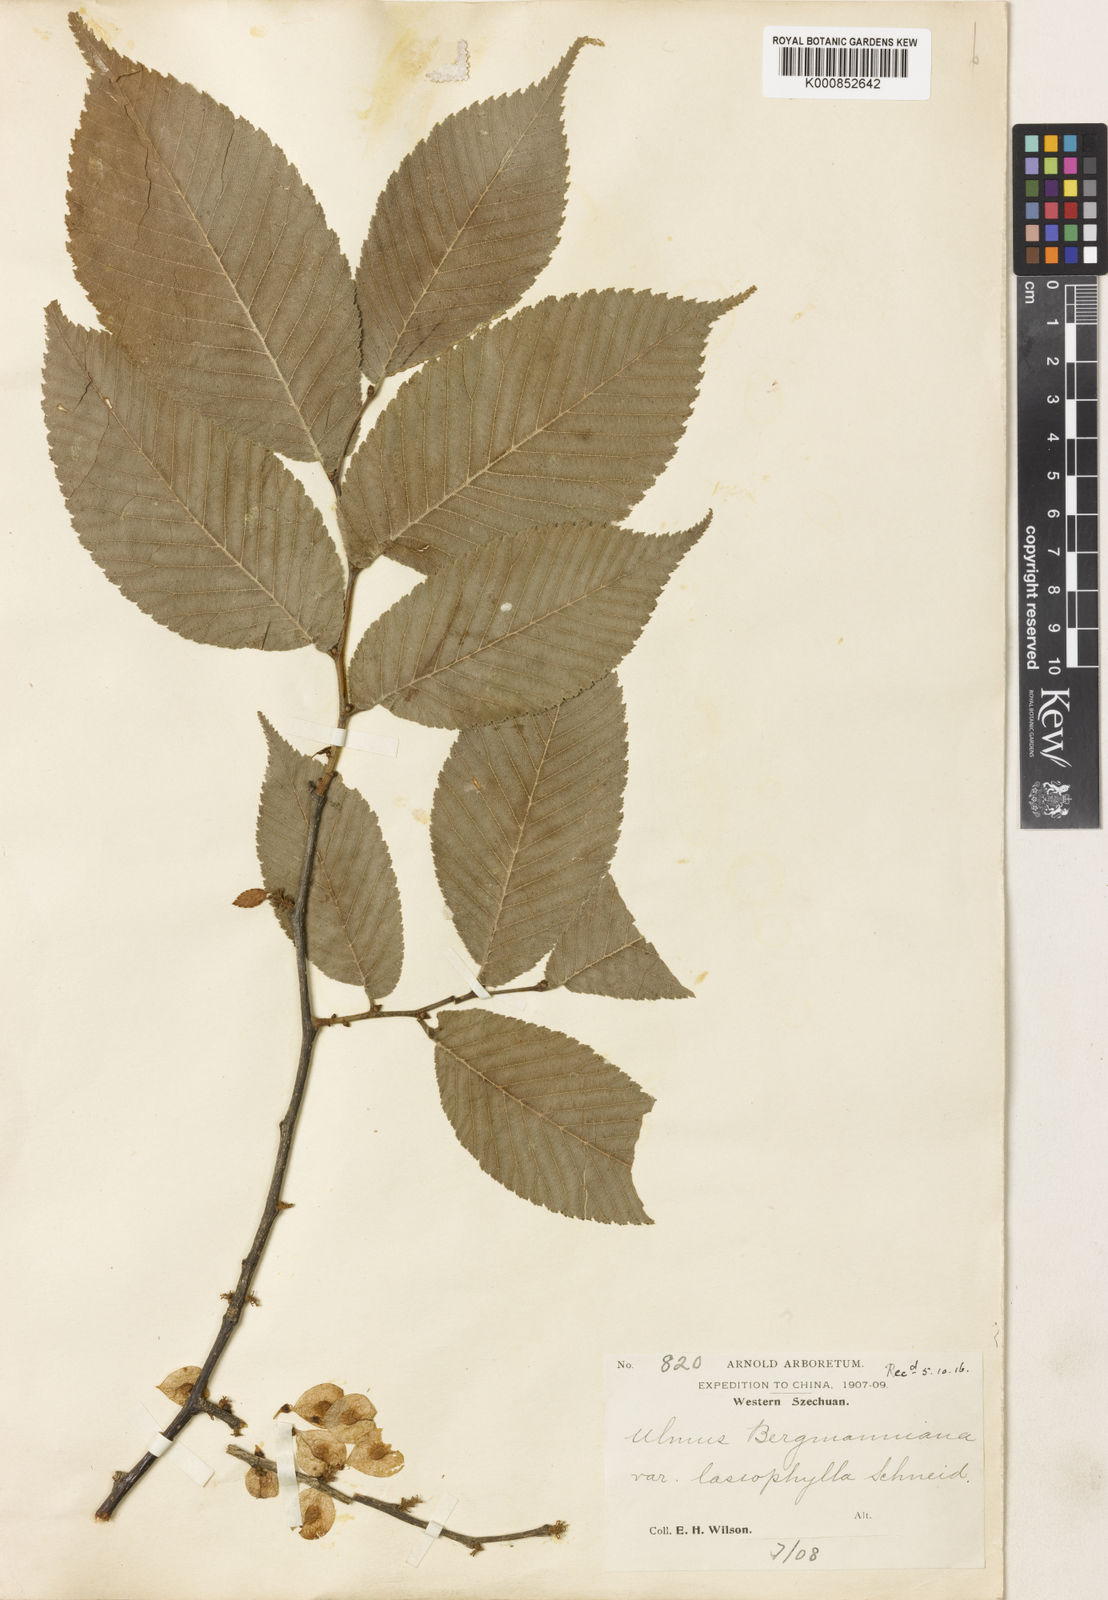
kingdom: Plantae
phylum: Tracheophyta
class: Magnoliopsida
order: Rosales
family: Ulmaceae
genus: Ulmus
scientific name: Ulmus bergmanniana
